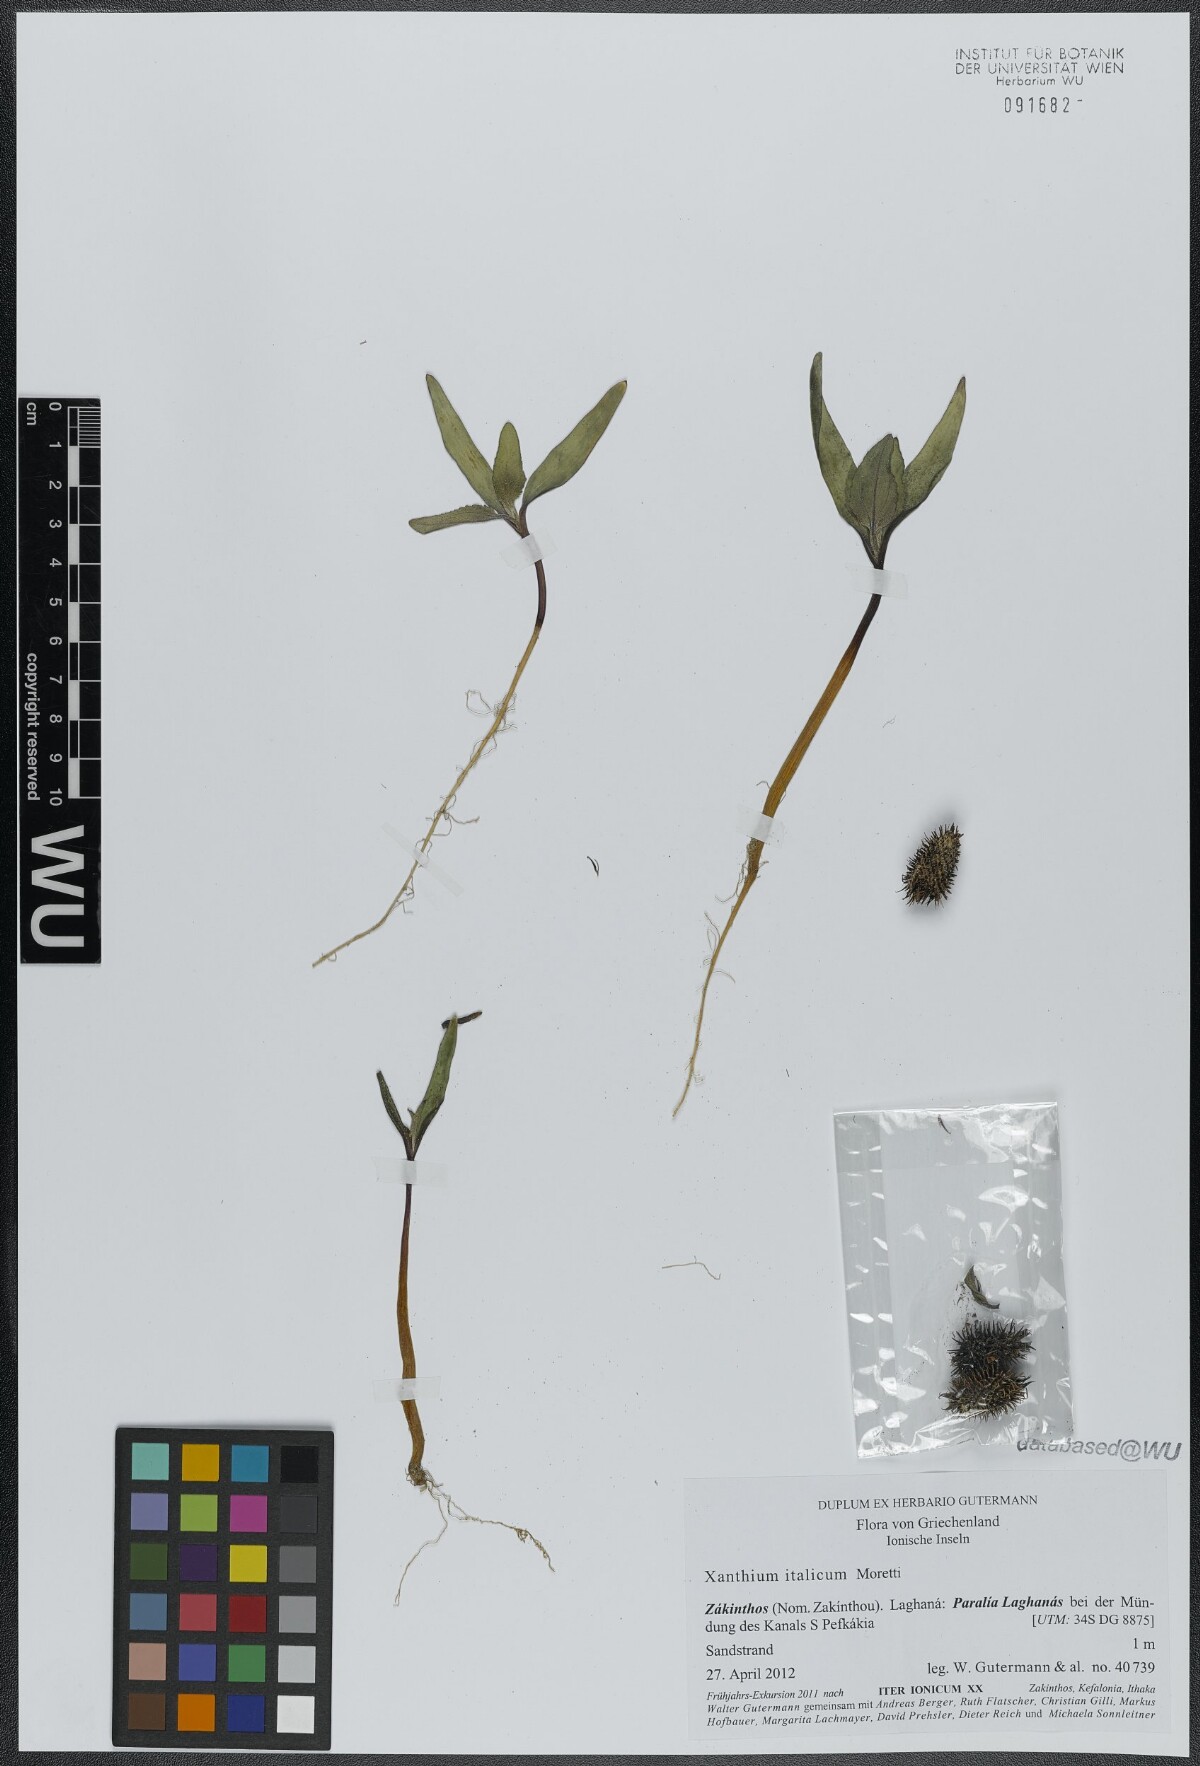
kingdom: Plantae
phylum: Tracheophyta
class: Magnoliopsida
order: Asterales
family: Asteraceae
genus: Xanthium
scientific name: Xanthium orientale
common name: Californian burr
